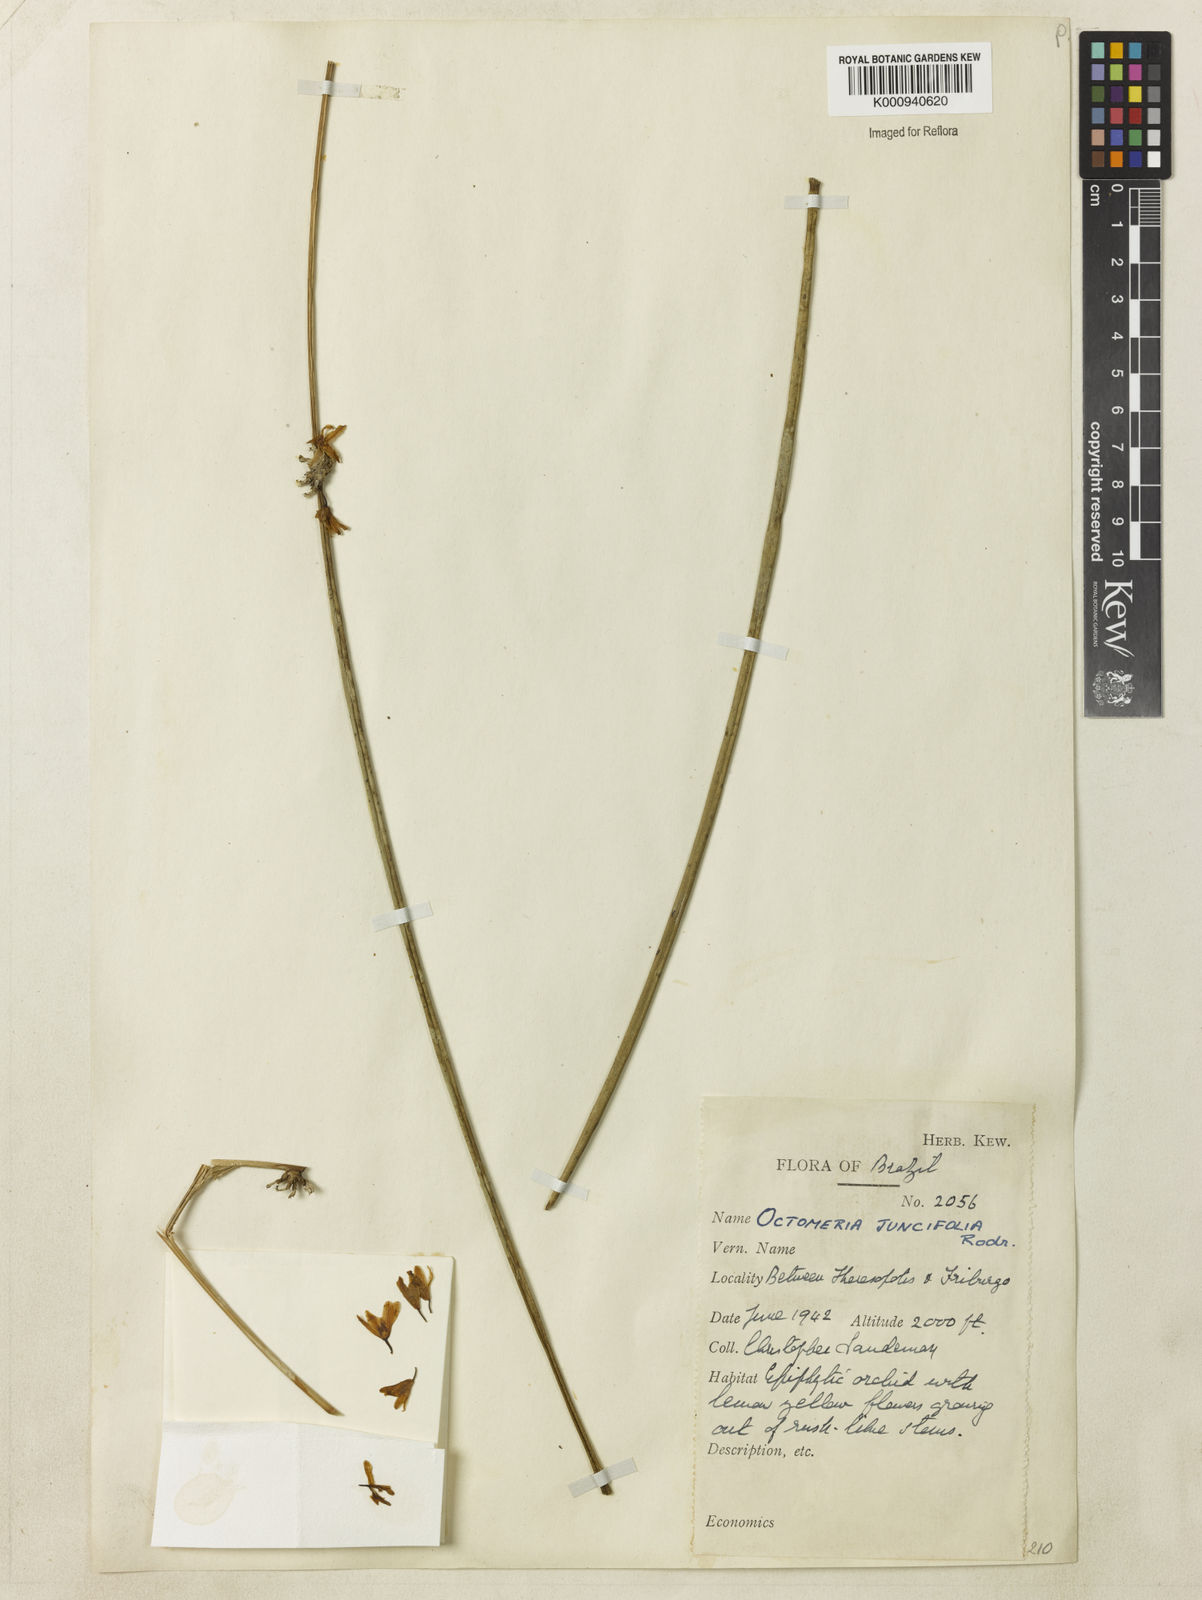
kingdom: Plantae
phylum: Tracheophyta
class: Liliopsida
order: Asparagales
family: Orchidaceae
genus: Octomeria
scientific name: Octomeria juncifolia
